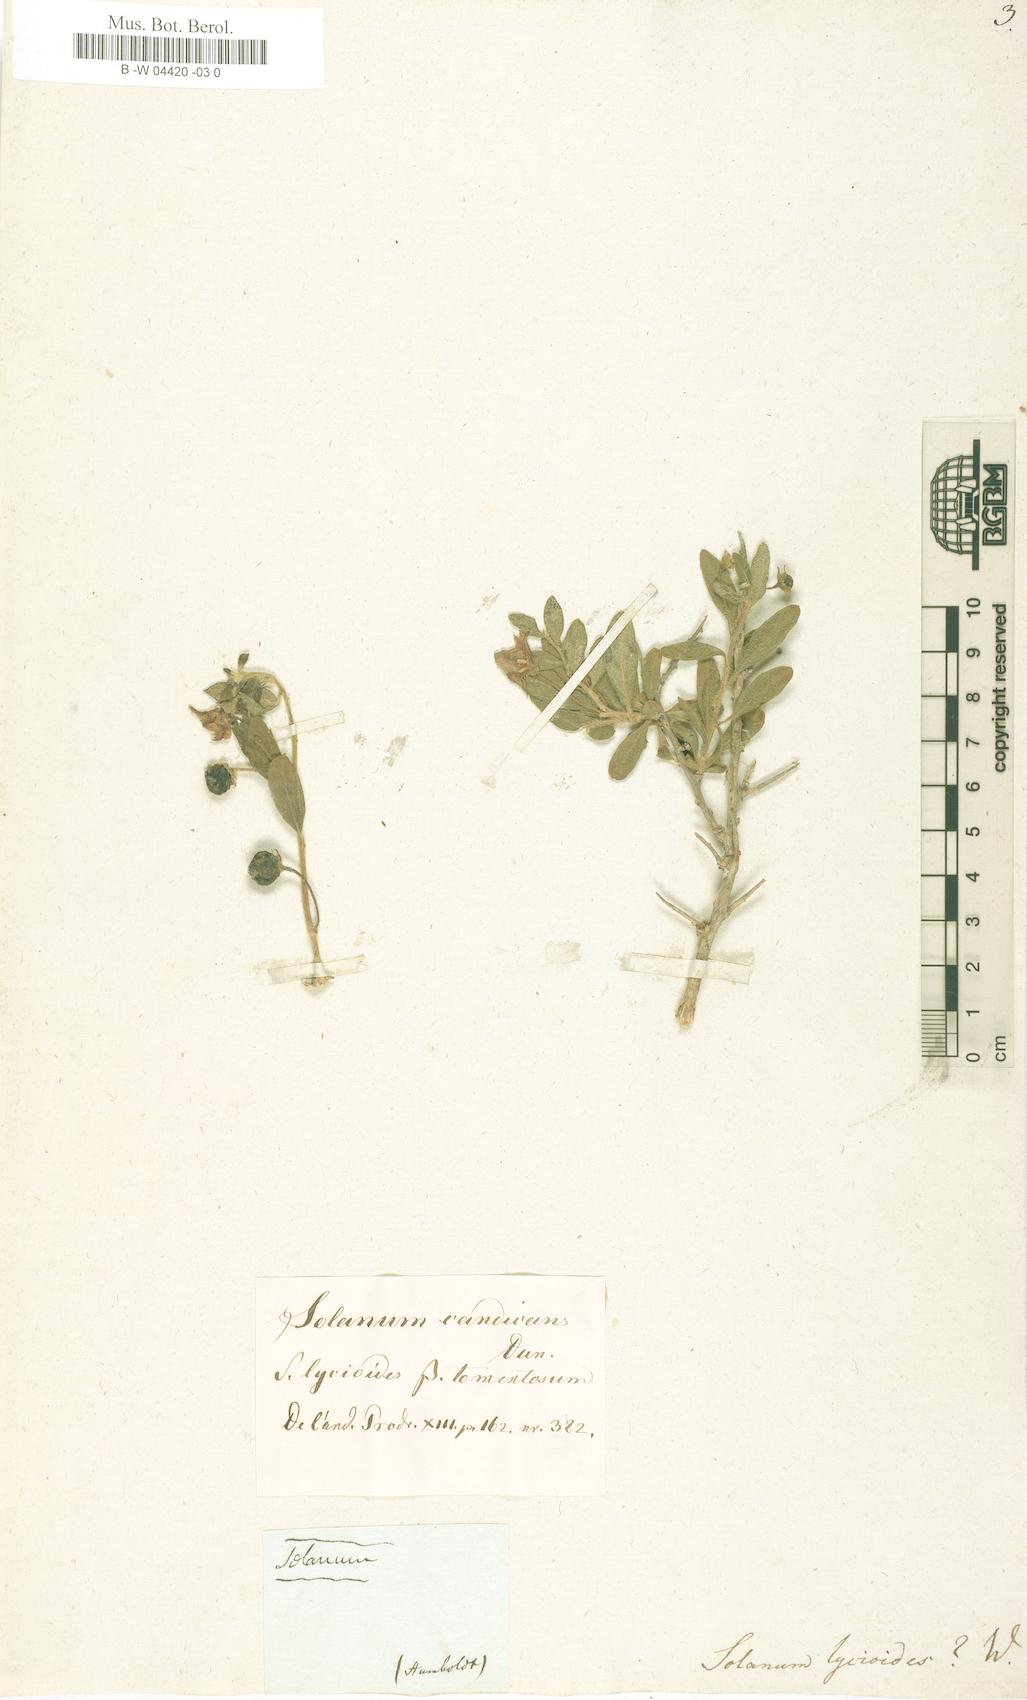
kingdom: Plantae
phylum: Tracheophyta
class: Magnoliopsida
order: Solanales
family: Solanaceae
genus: Lycianthes
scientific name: Lycianthes lycioides
